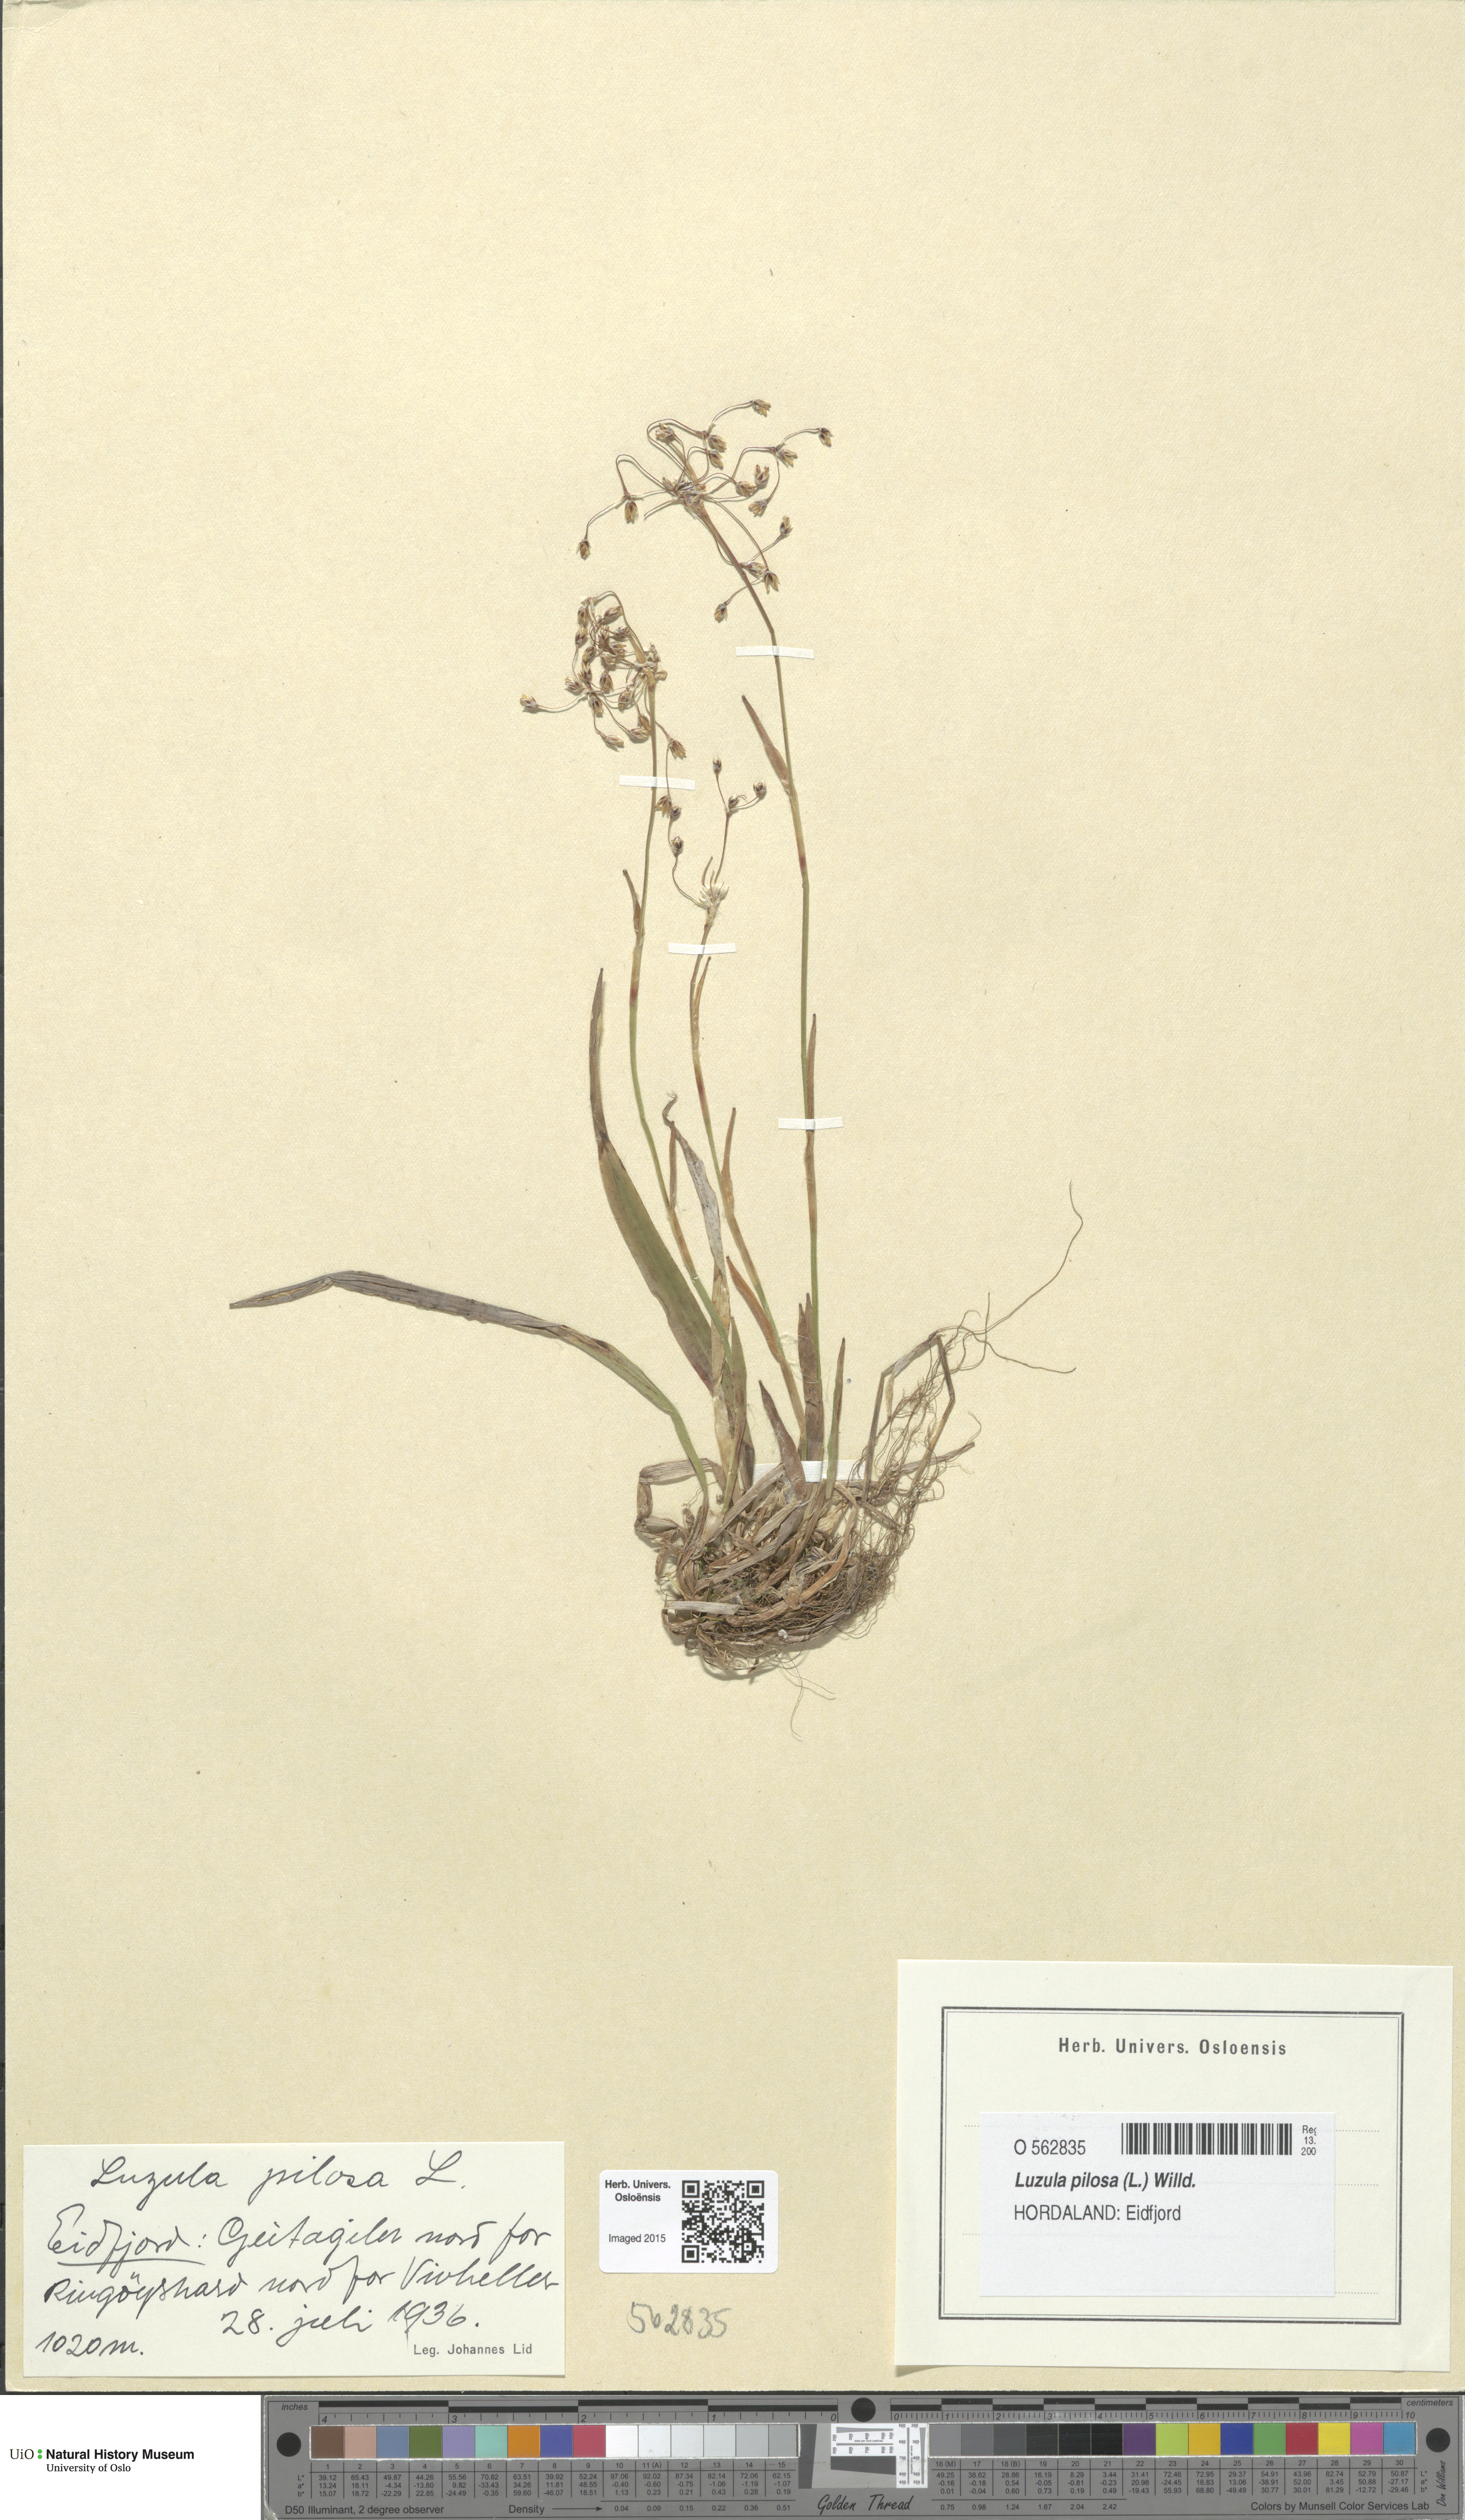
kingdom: Plantae
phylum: Tracheophyta
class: Liliopsida
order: Poales
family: Juncaceae
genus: Luzula
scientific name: Luzula pilosa
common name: Hairy wood-rush
